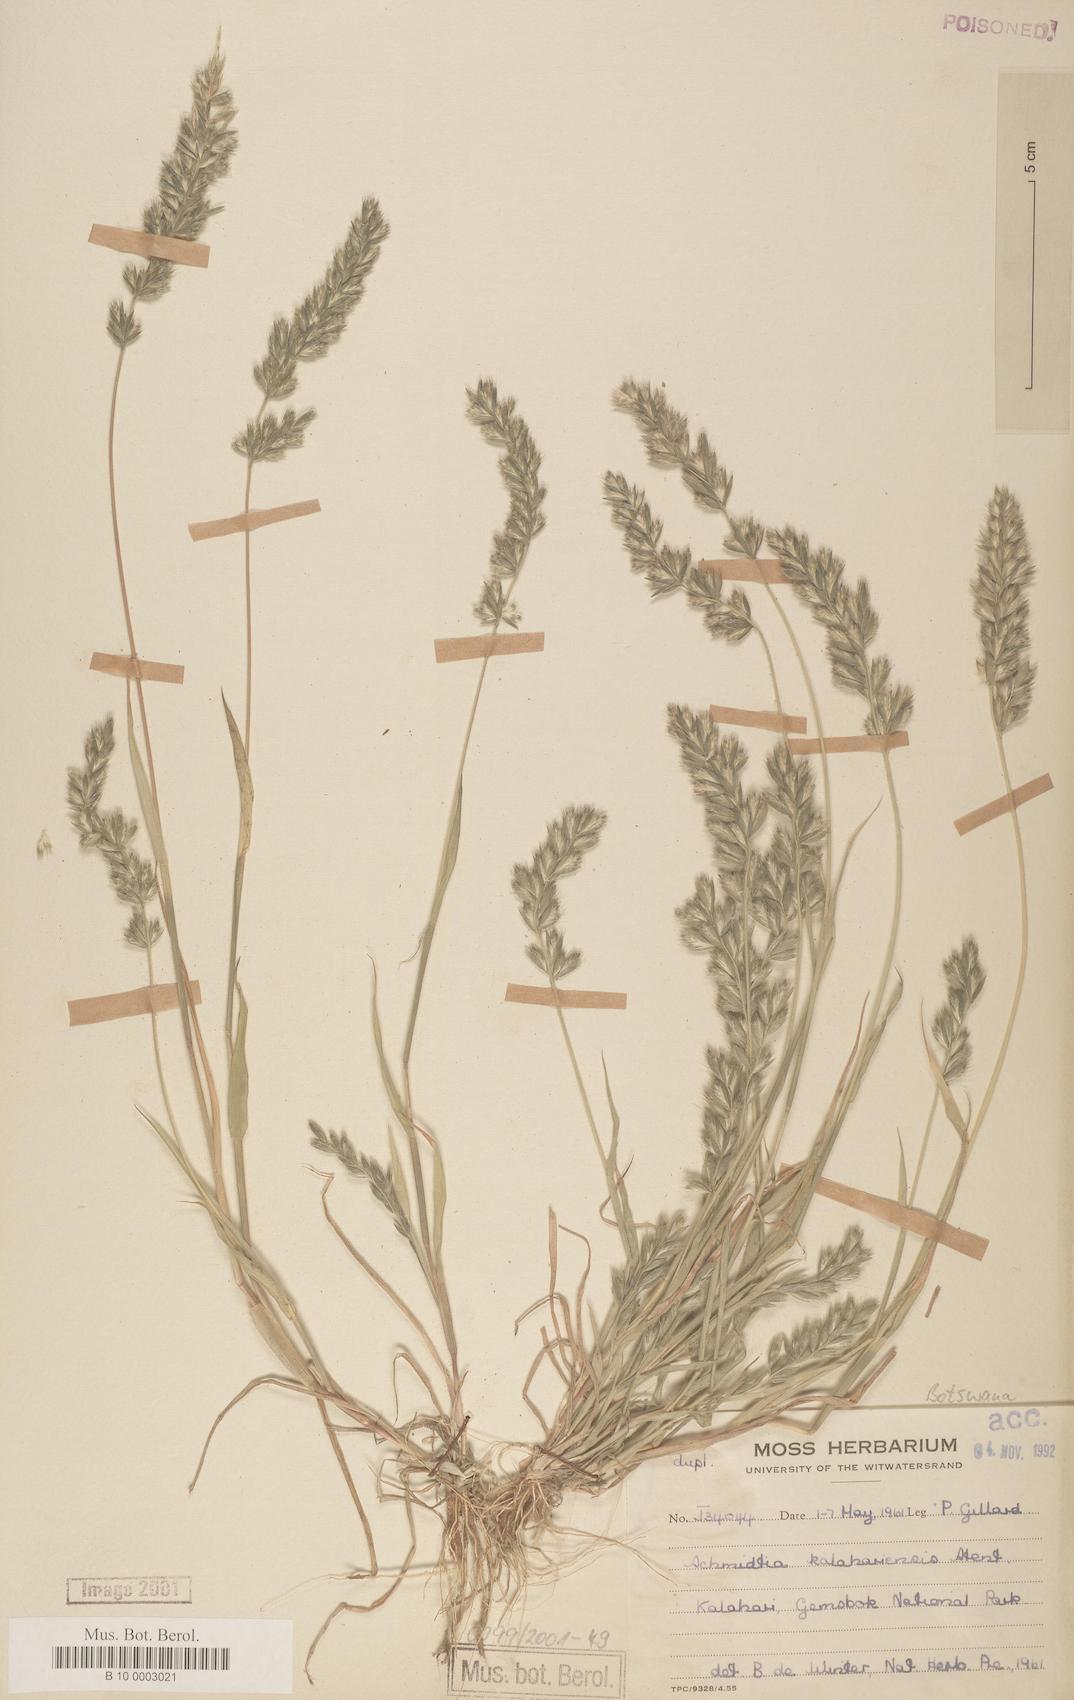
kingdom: Plantae
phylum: Tracheophyta
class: Liliopsida
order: Poales
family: Poaceae
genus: Schmidtia
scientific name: Schmidtia kalahariensis
